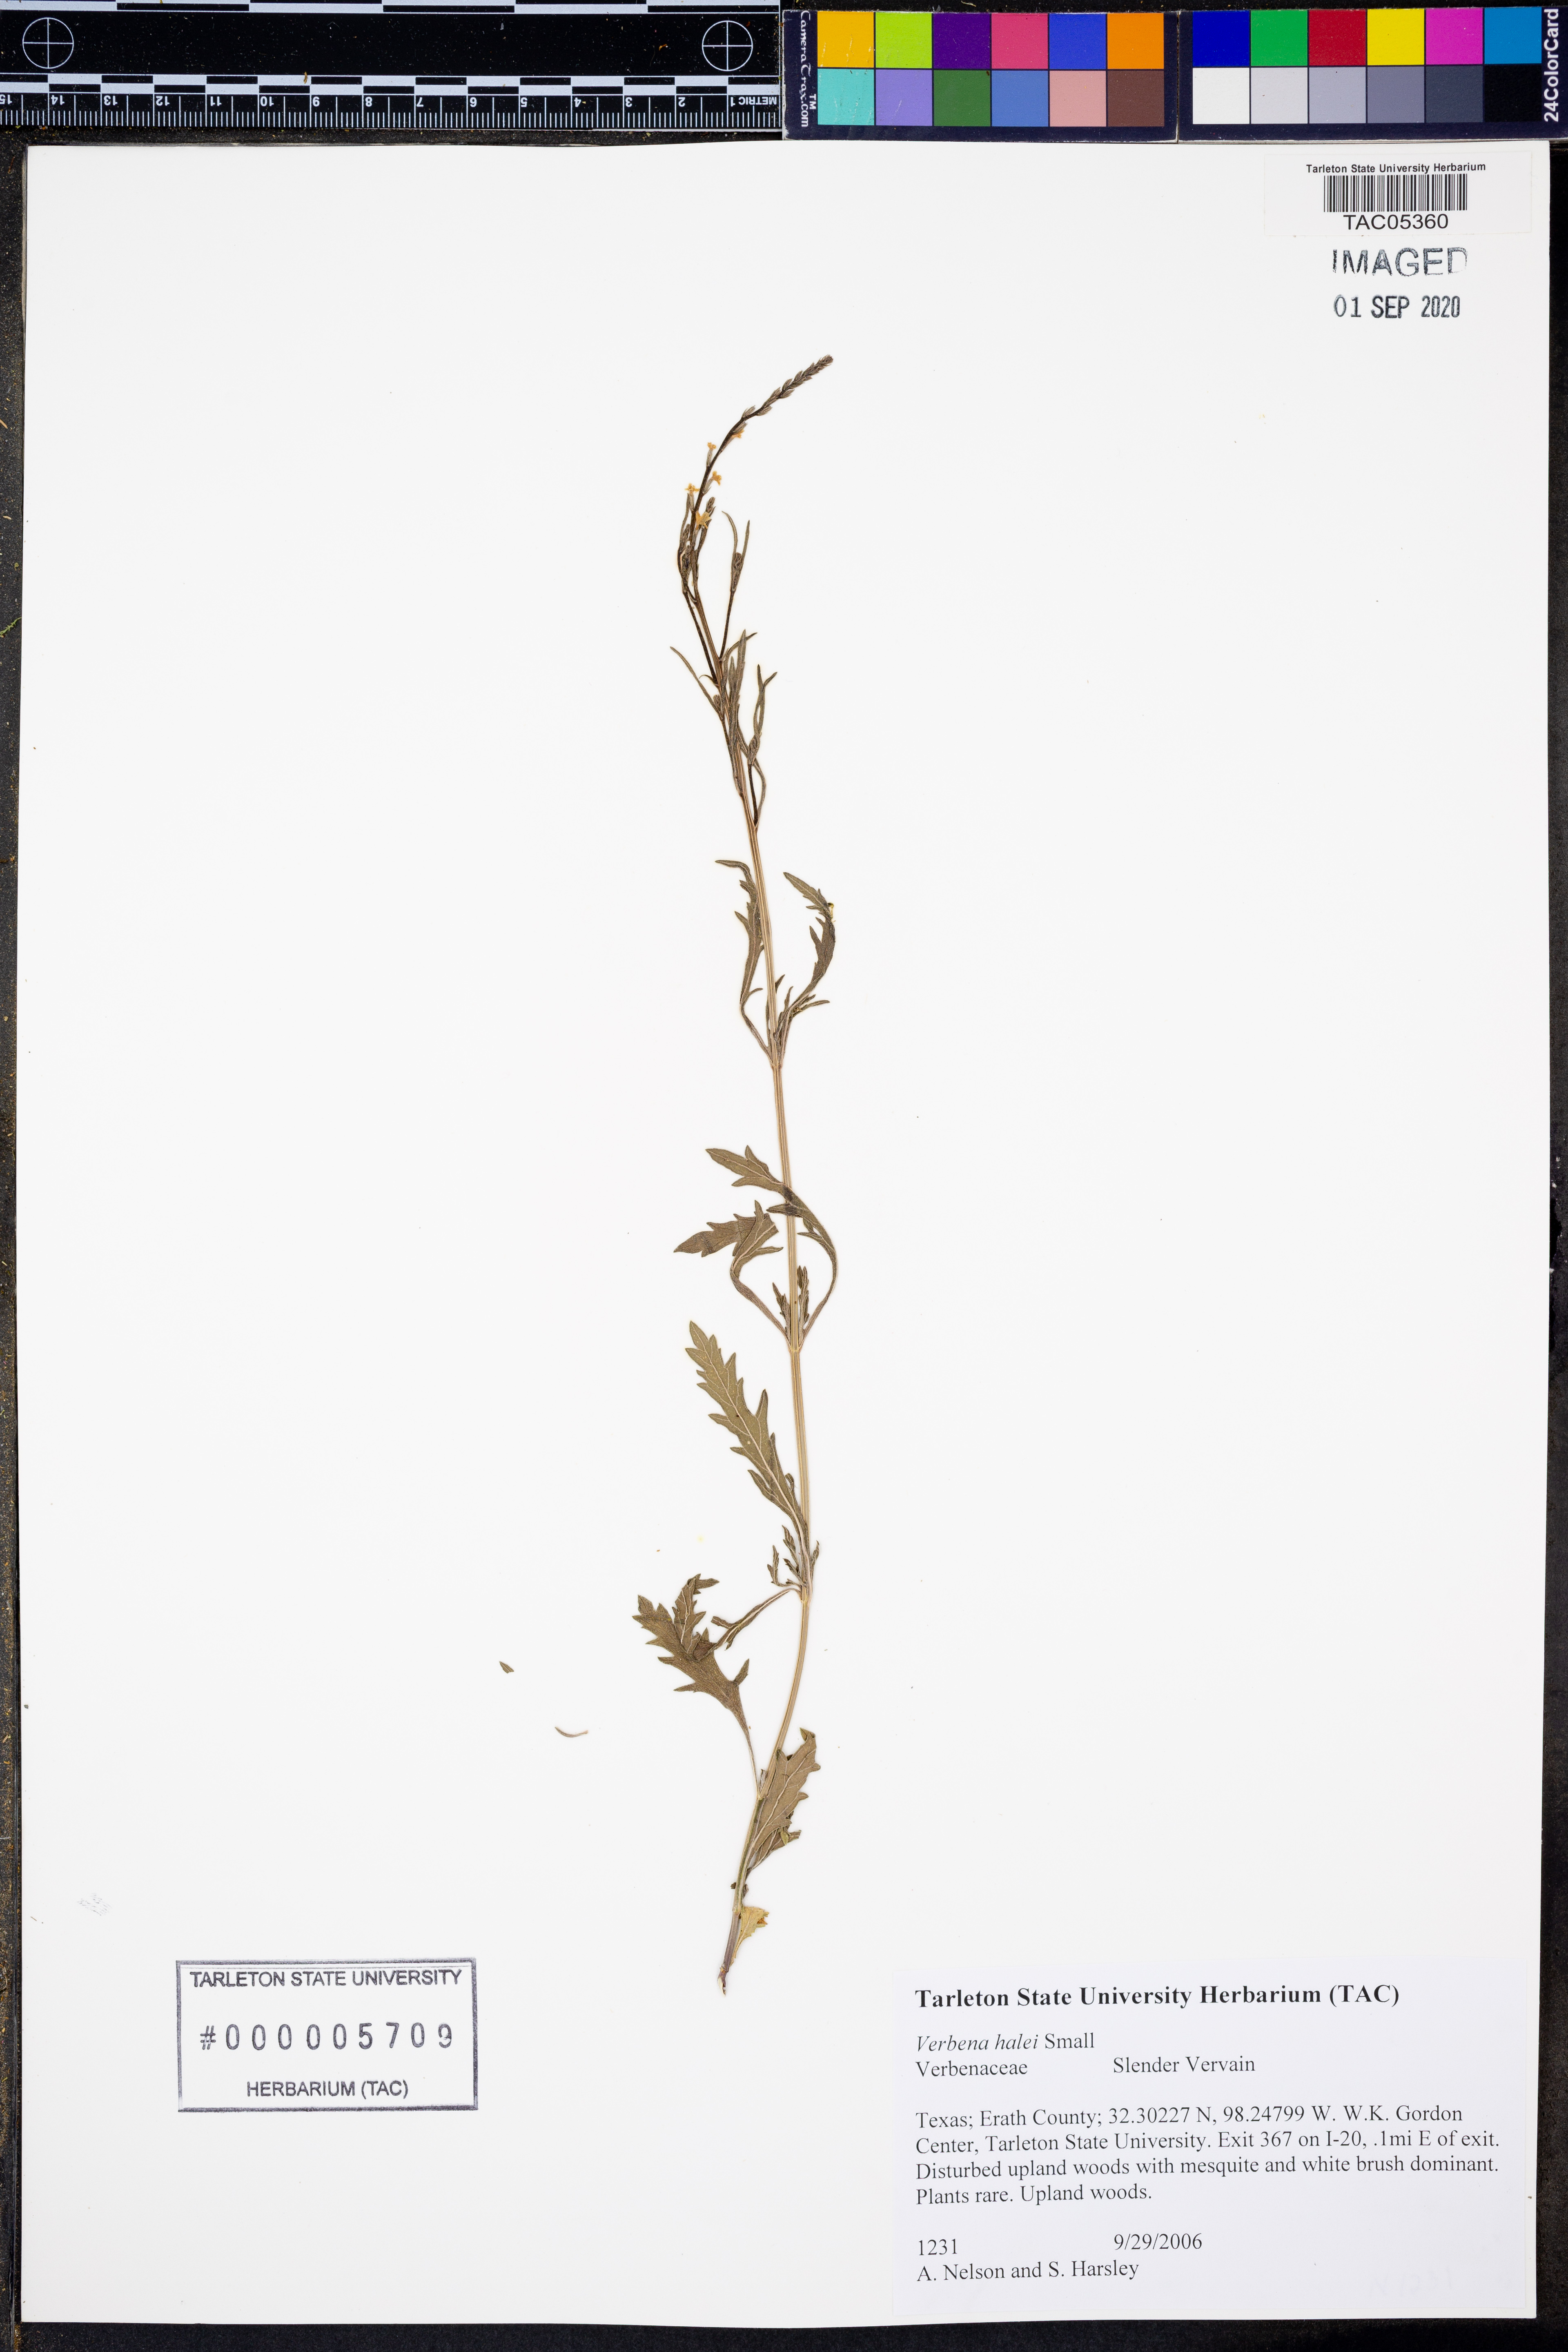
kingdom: Plantae
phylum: Tracheophyta
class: Magnoliopsida
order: Lamiales
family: Verbenaceae
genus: Verbena
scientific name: Verbena halei
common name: Texas vervain
